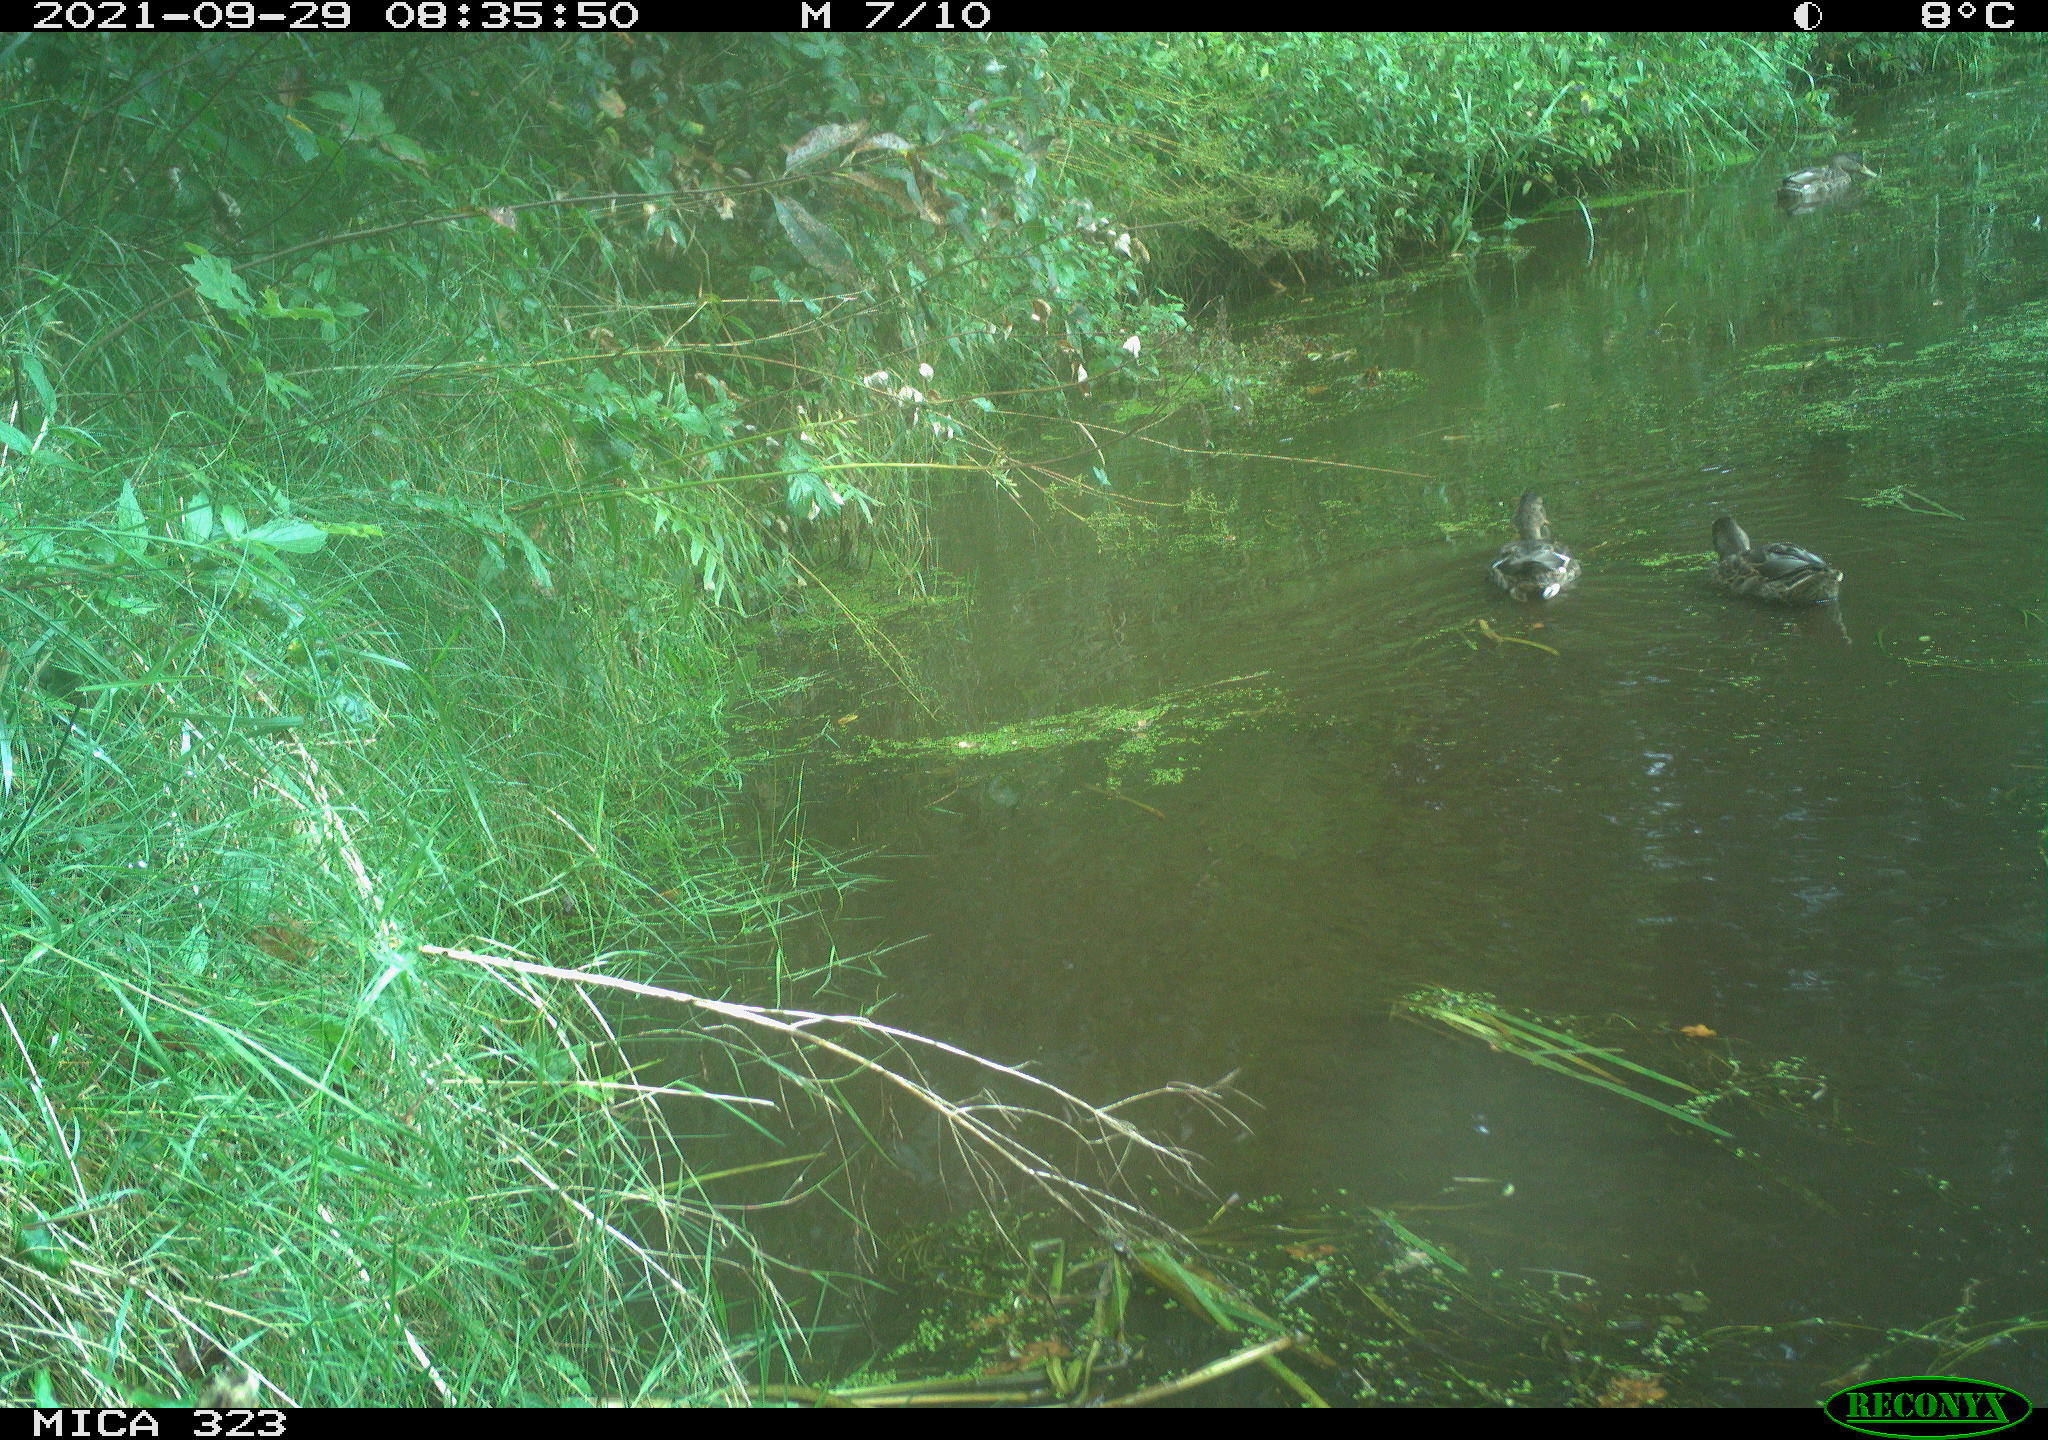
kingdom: Animalia
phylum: Chordata
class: Aves
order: Anseriformes
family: Anatidae
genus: Anas
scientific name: Anas platyrhynchos
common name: Mallard
